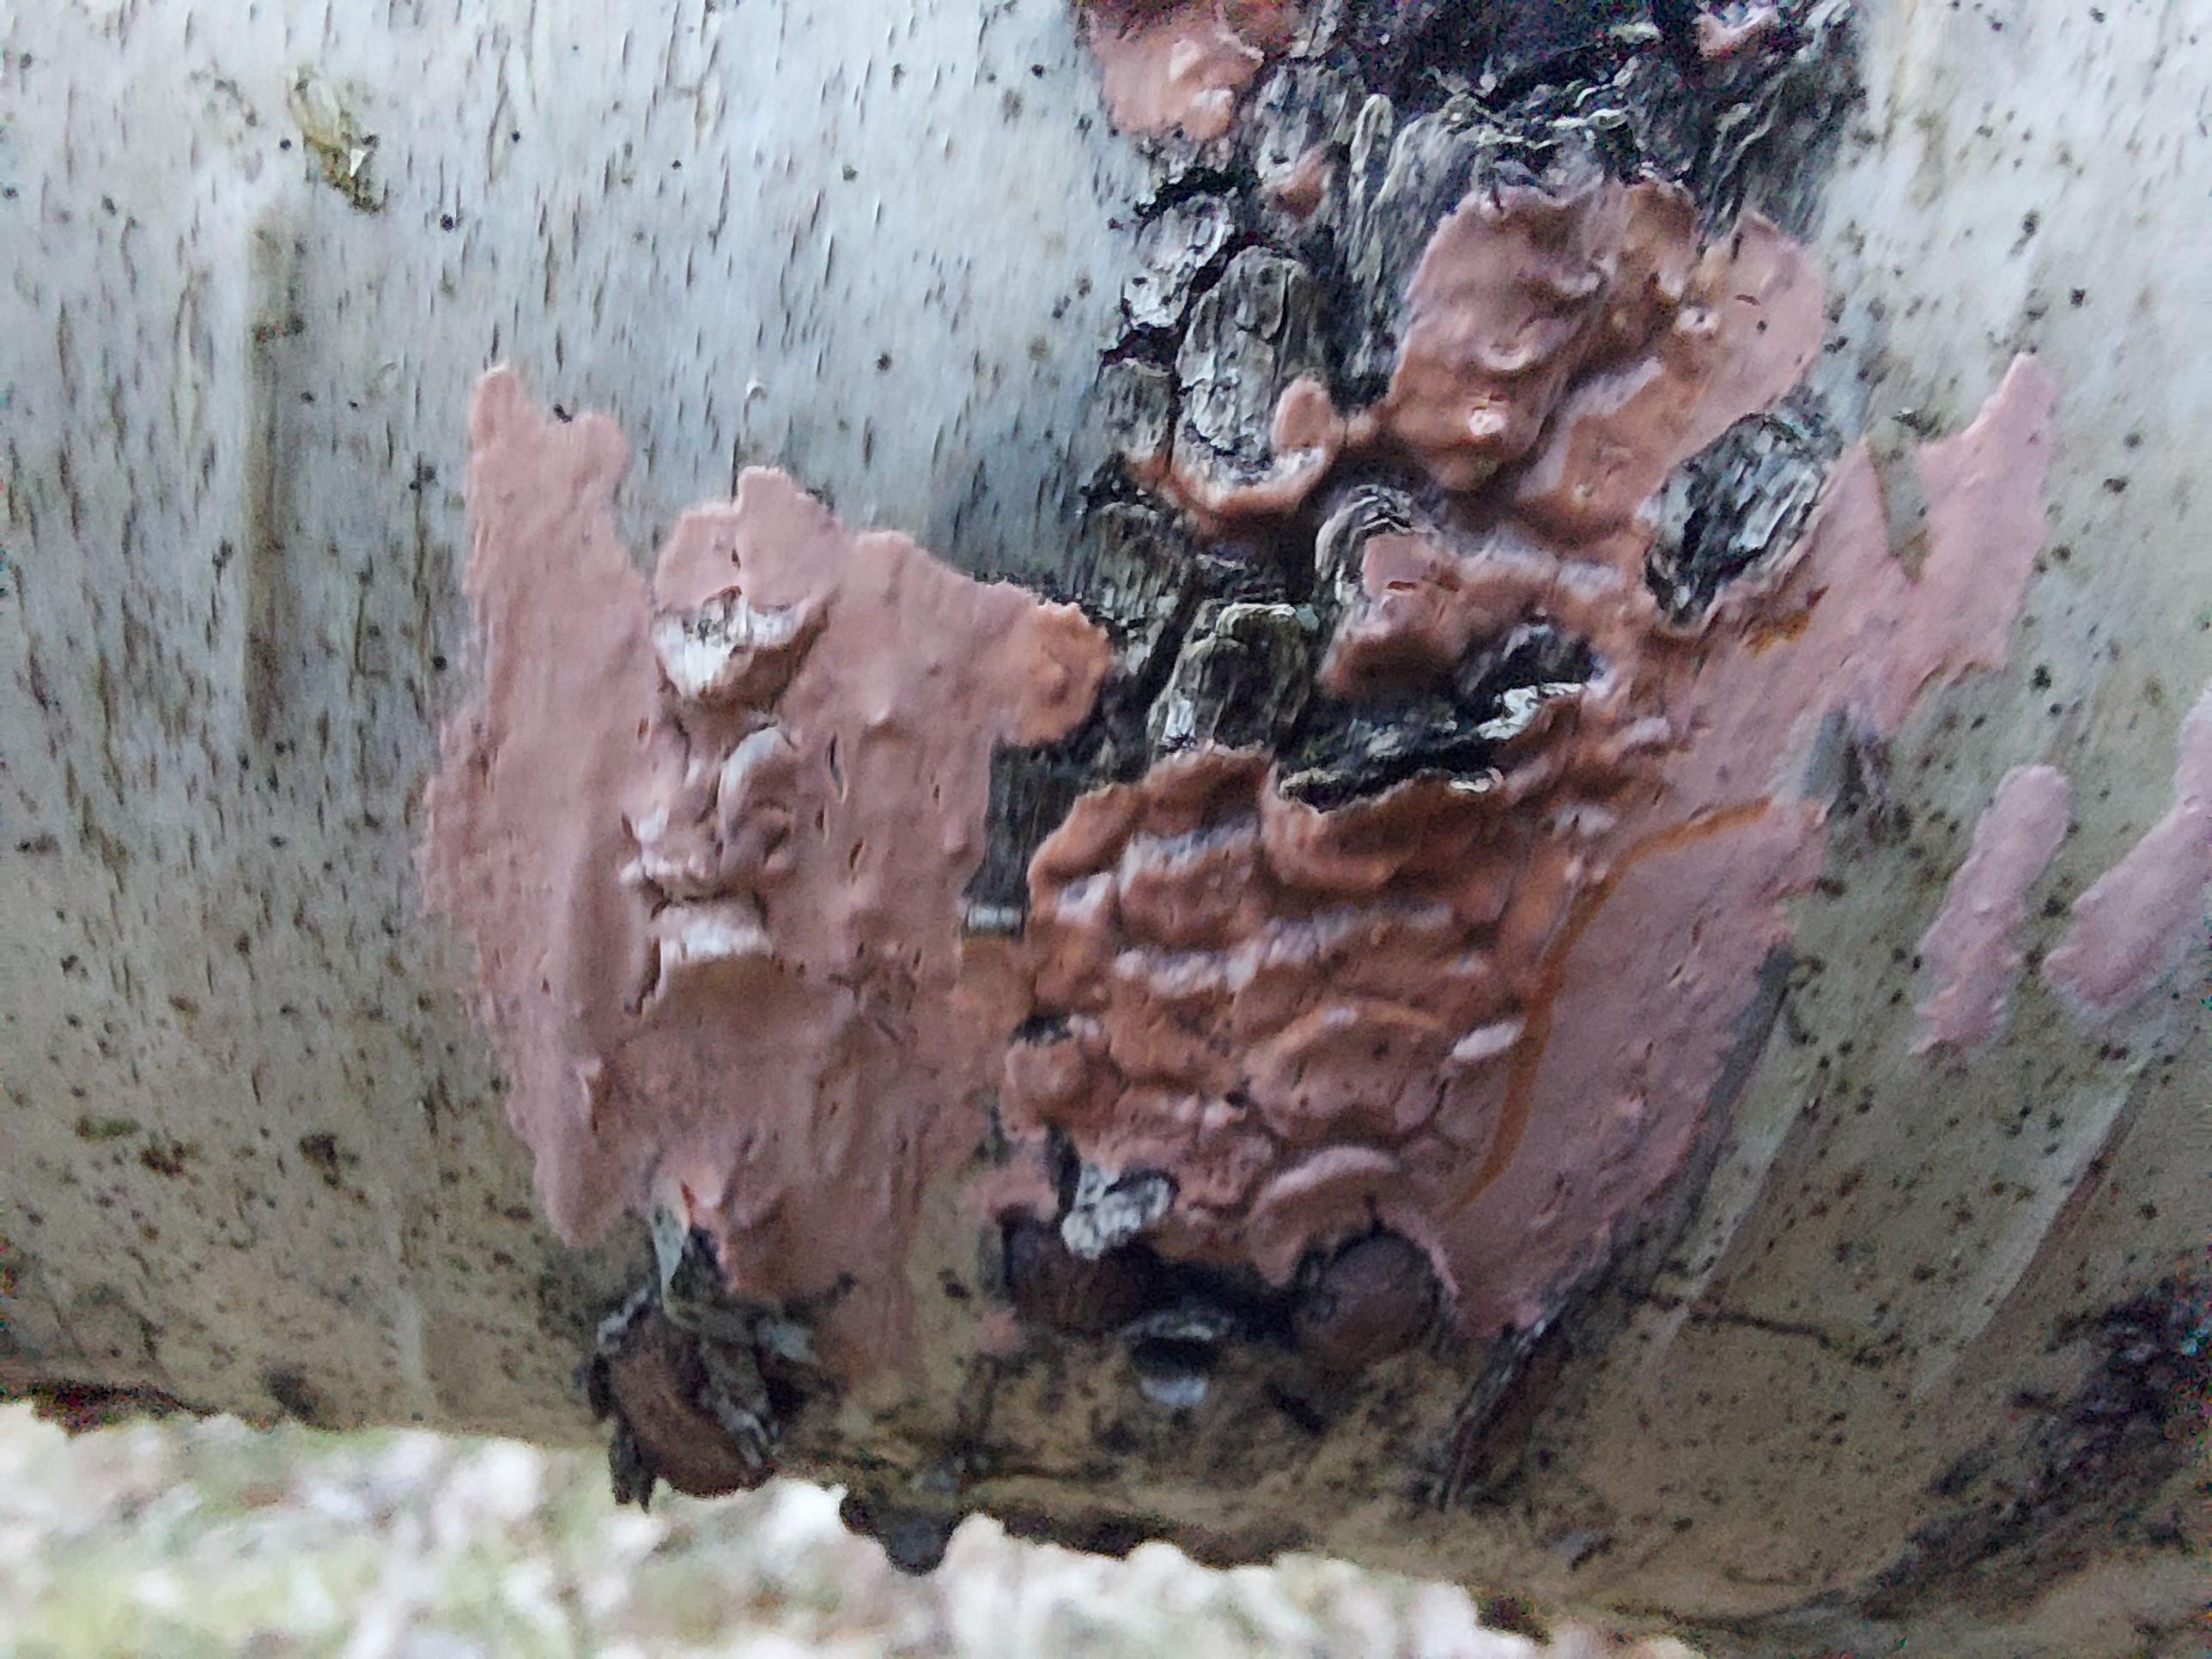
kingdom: Fungi
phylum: Basidiomycota
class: Agaricomycetes
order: Russulales
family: Peniophoraceae
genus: Peniophora
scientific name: Peniophora incarnata
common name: laksefarvet voksskind
